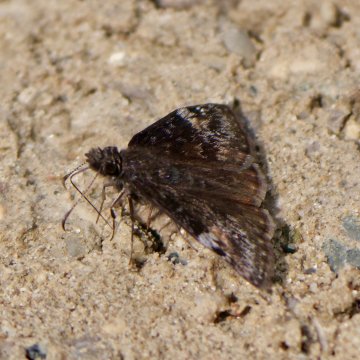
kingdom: Animalia
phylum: Arthropoda
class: Insecta
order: Lepidoptera
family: Hesperiidae
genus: Gesta
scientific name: Gesta
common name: Columbine Duskywing
